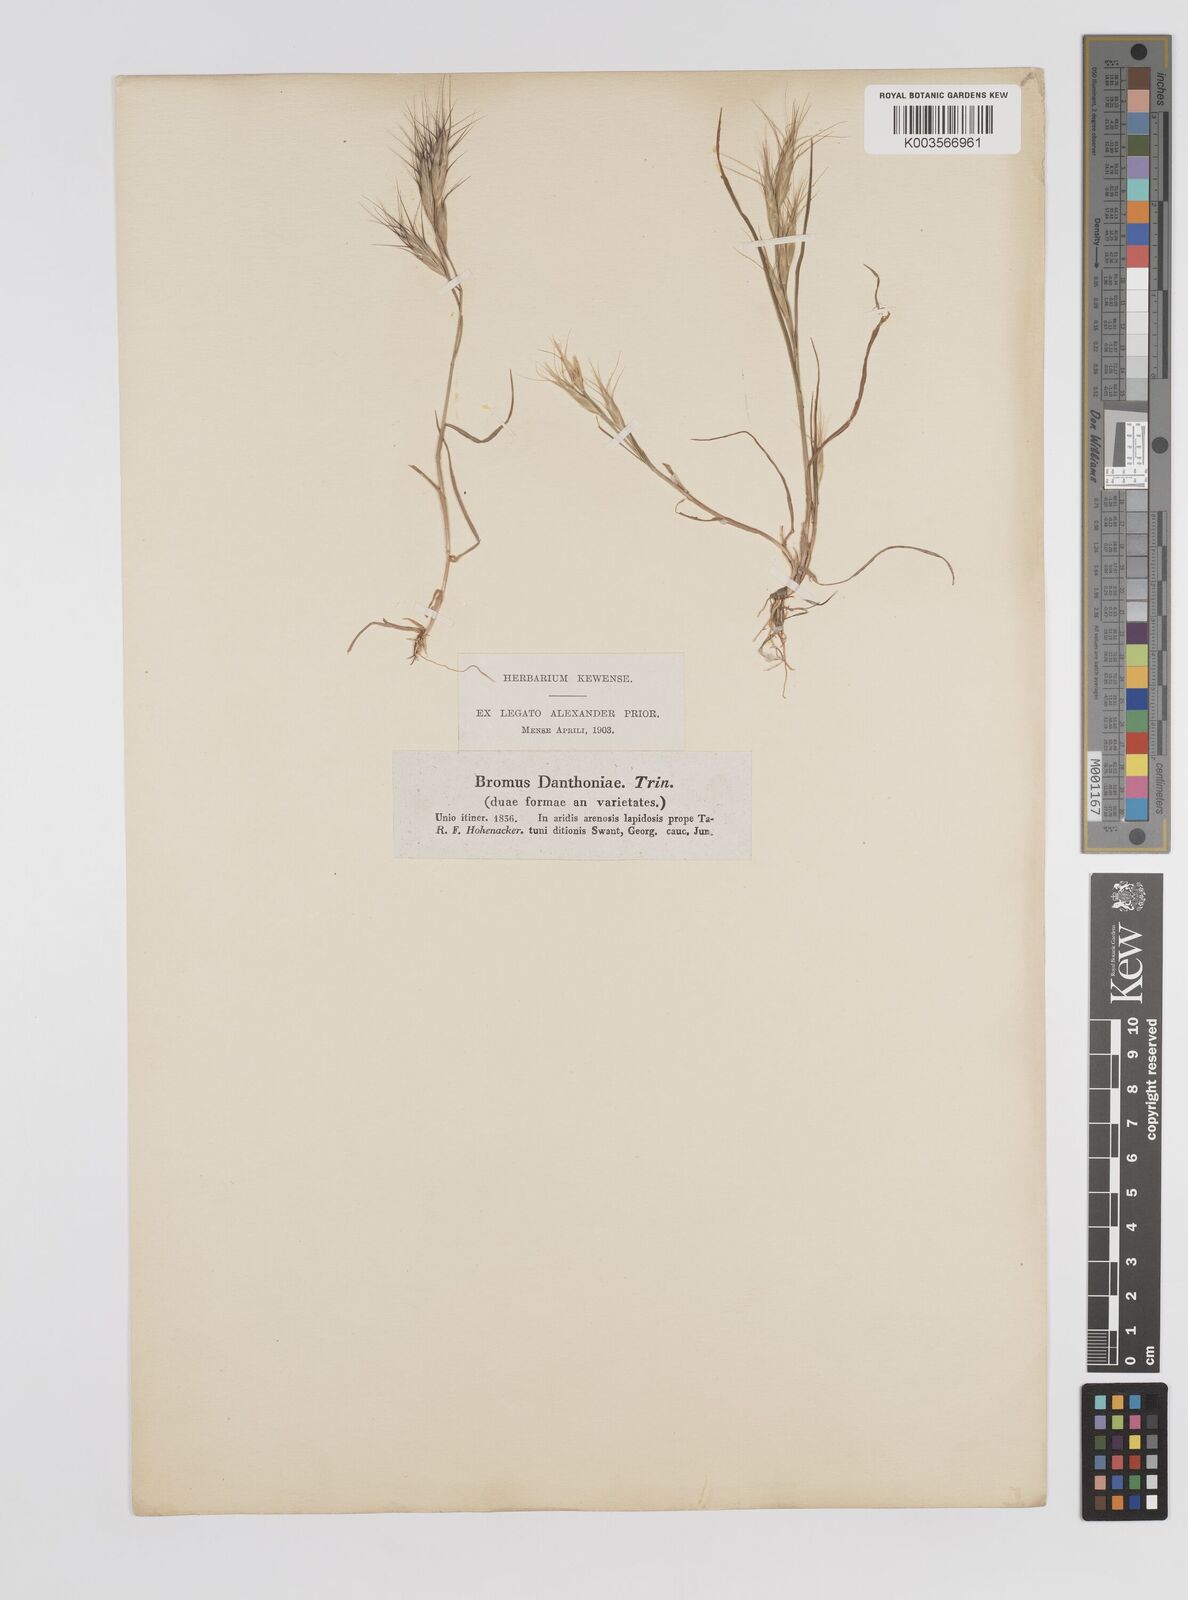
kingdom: Plantae
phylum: Tracheophyta
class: Liliopsida
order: Poales
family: Poaceae
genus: Bromus
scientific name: Bromus danthoniae
